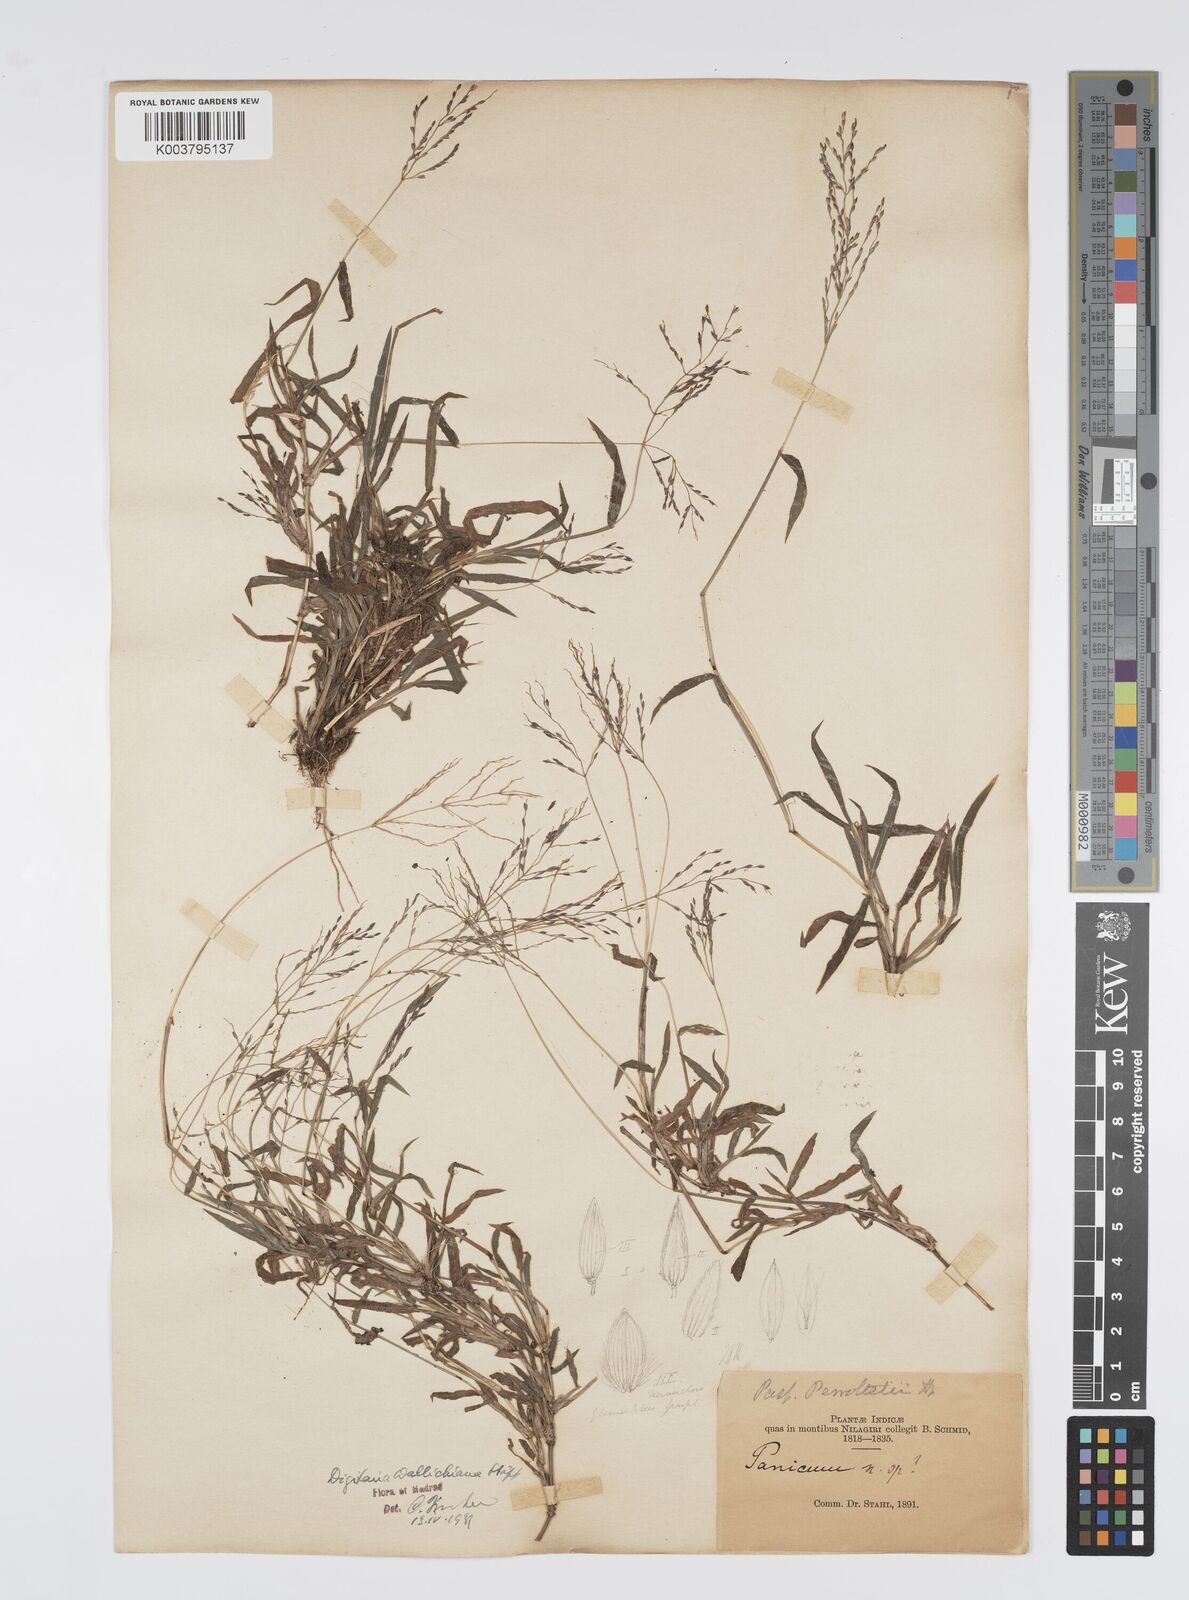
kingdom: Plantae
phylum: Tracheophyta
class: Liliopsida
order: Poales
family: Poaceae
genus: Digitaria
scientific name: Digitaria wallichiana
